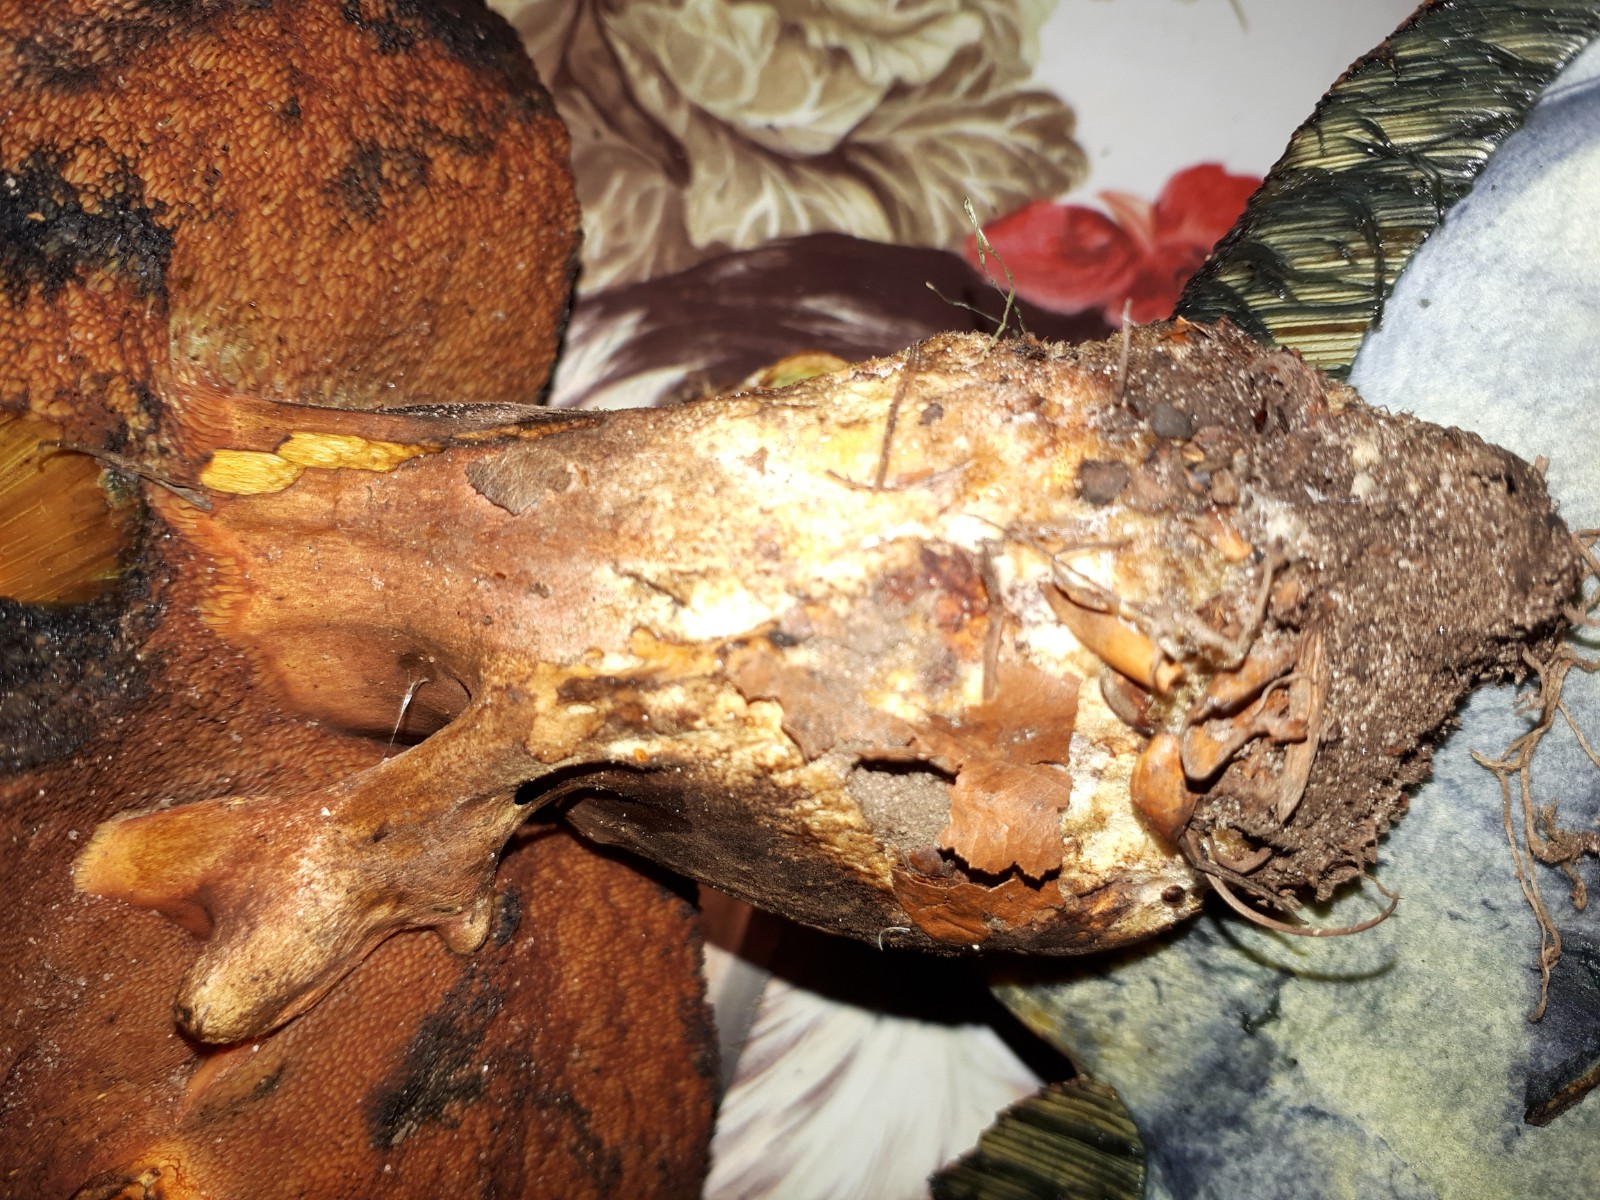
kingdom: Fungi
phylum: Basidiomycota
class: Agaricomycetes
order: Boletales
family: Boletaceae
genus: Neoboletus
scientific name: Neoboletus erythropus
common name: punktstokket indigorørhat
